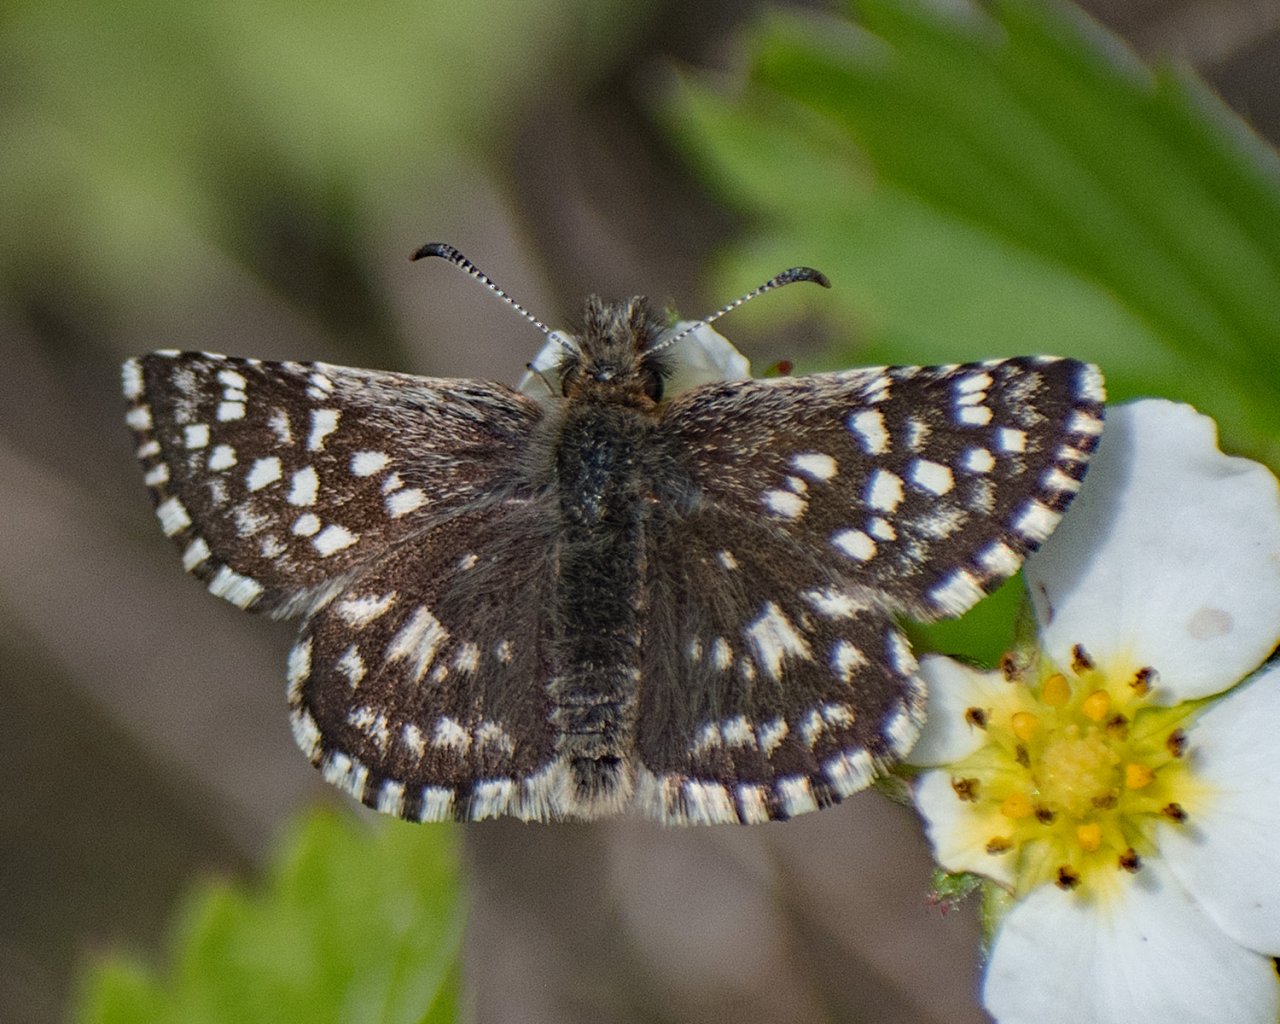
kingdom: Animalia
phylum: Arthropoda
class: Insecta
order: Lepidoptera
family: Hesperiidae
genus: Pyrgus
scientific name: Pyrgus ruralis
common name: Two-banded Checkered-Skipper
